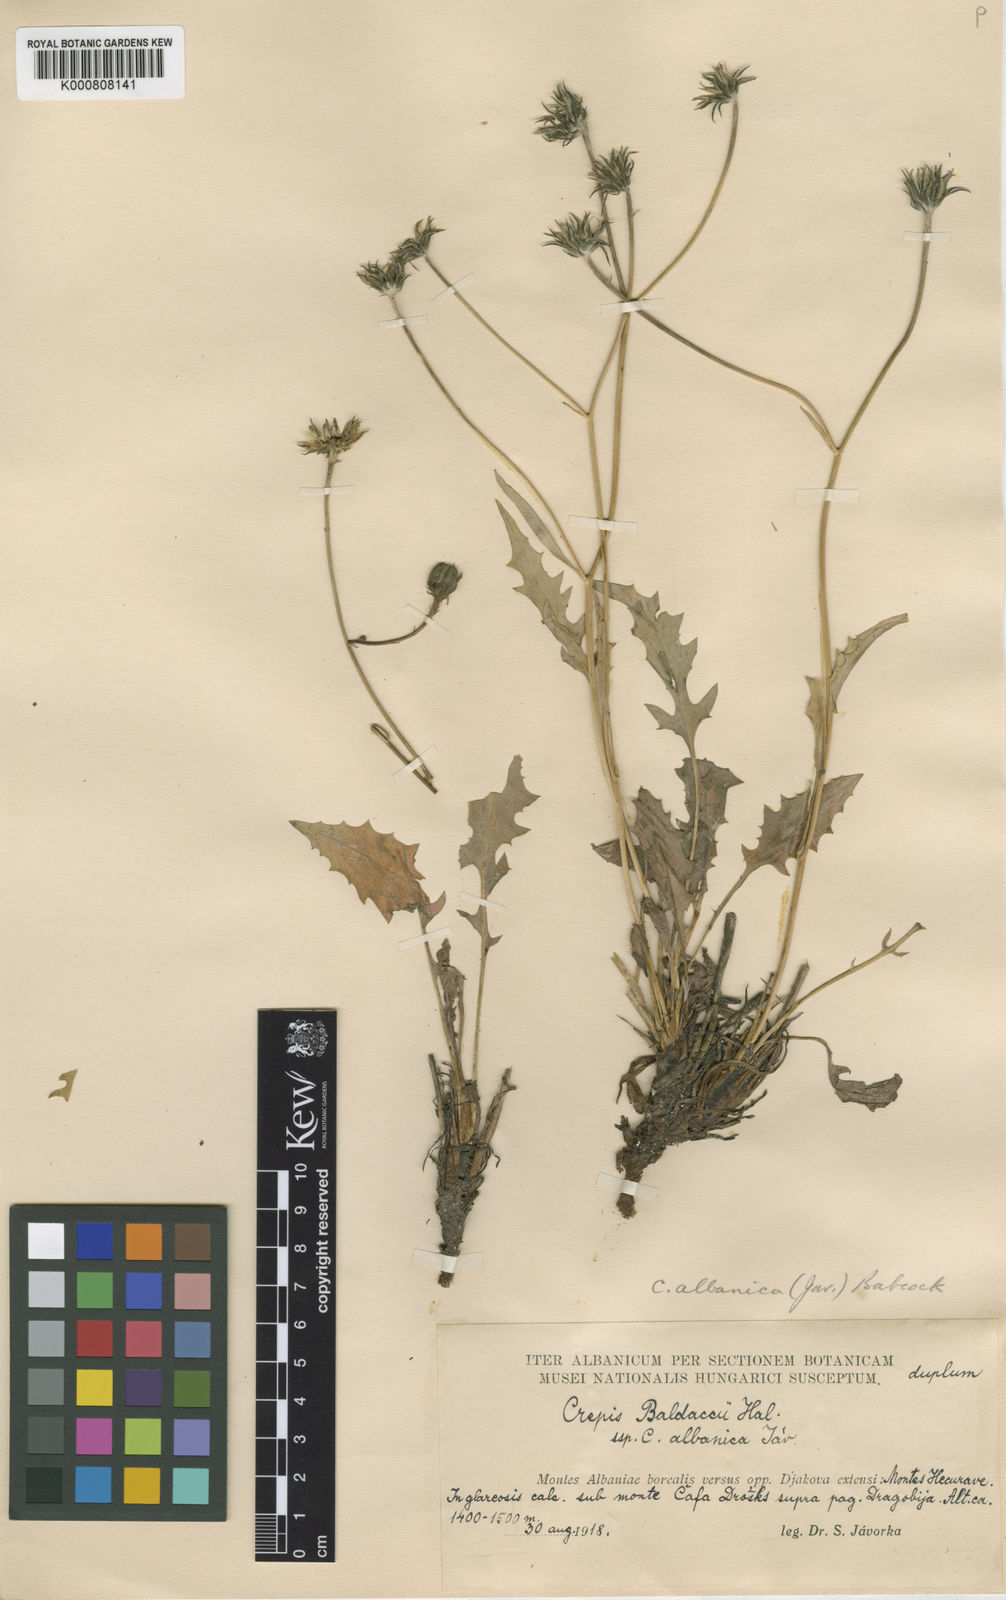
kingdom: Plantae
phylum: Tracheophyta
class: Magnoliopsida
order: Asterales
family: Asteraceae
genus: Crepis
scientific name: Crepis baldaccii
